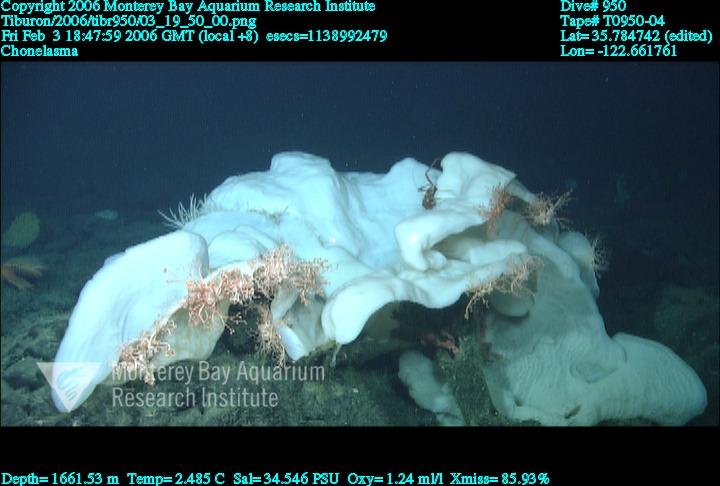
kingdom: Animalia
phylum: Porifera
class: Hexactinellida
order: Sceptrulophora
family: Euretidae
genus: Chonelasma
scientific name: Chonelasma
